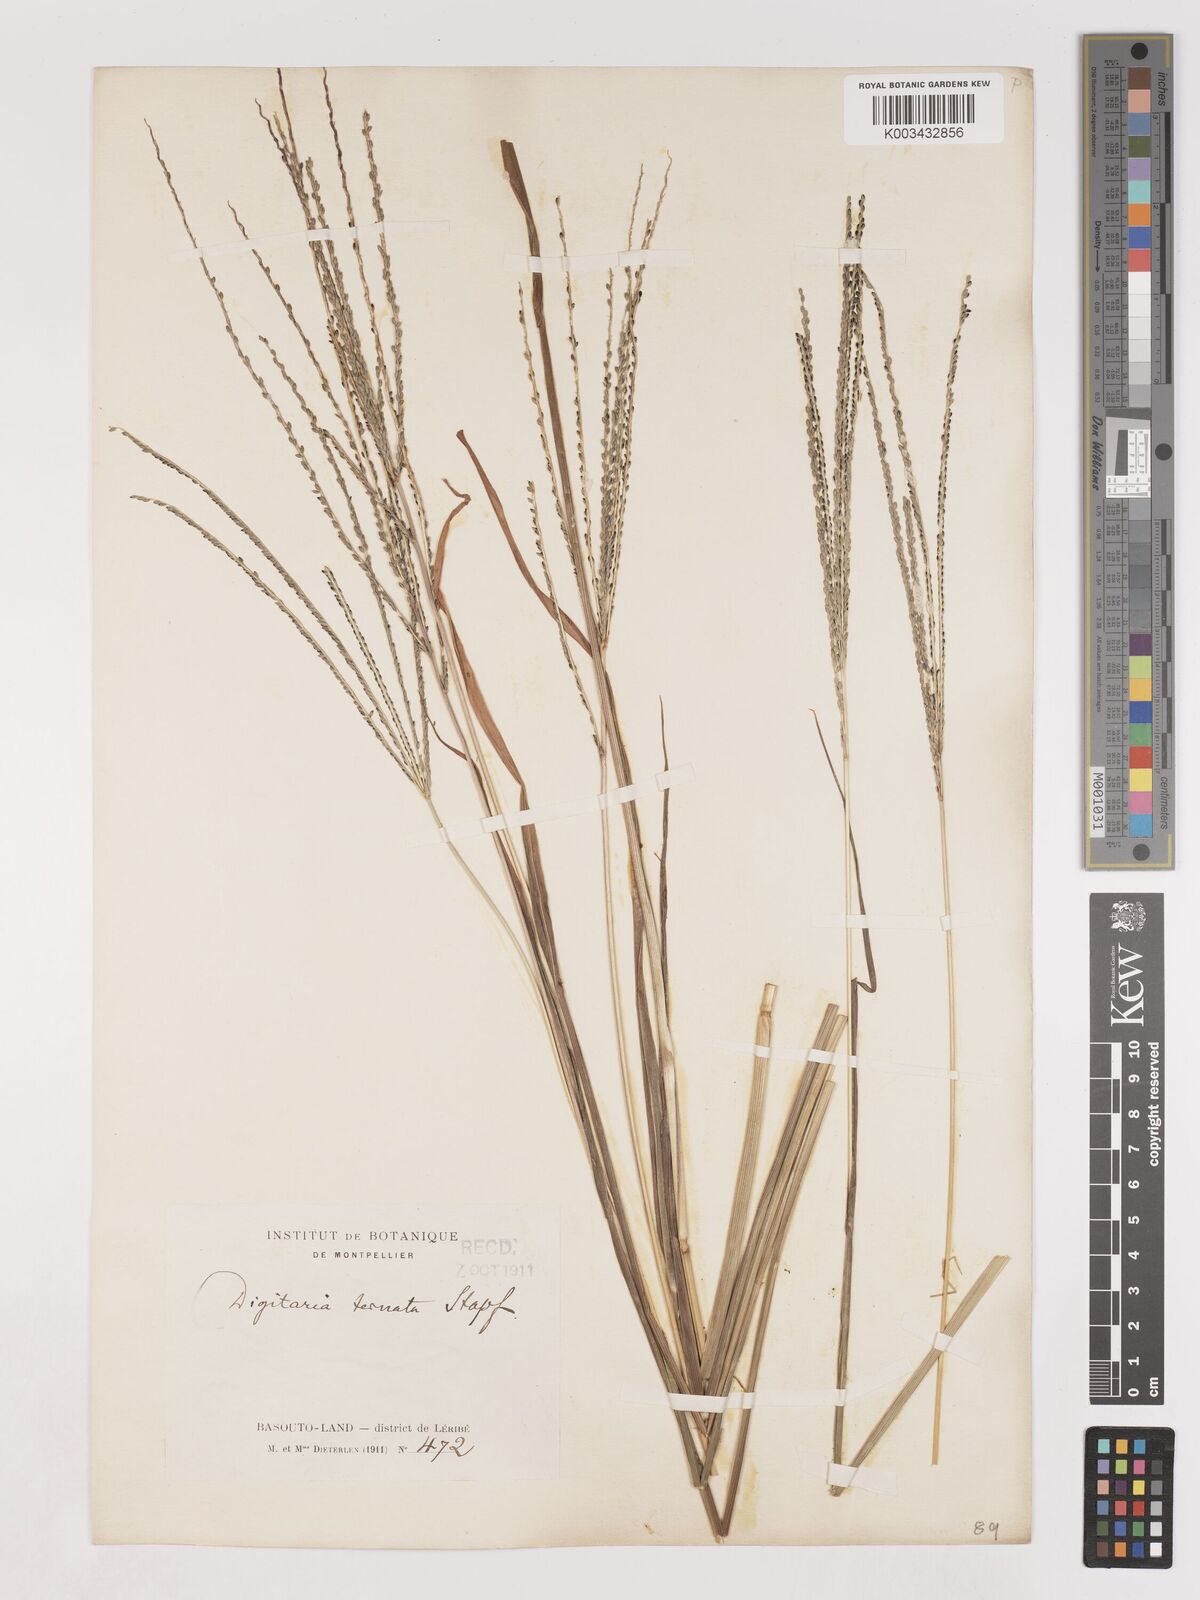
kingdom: Plantae
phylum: Tracheophyta
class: Liliopsida
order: Poales
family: Poaceae
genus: Digitaria
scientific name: Digitaria ternata
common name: Blackseed crabgrass
